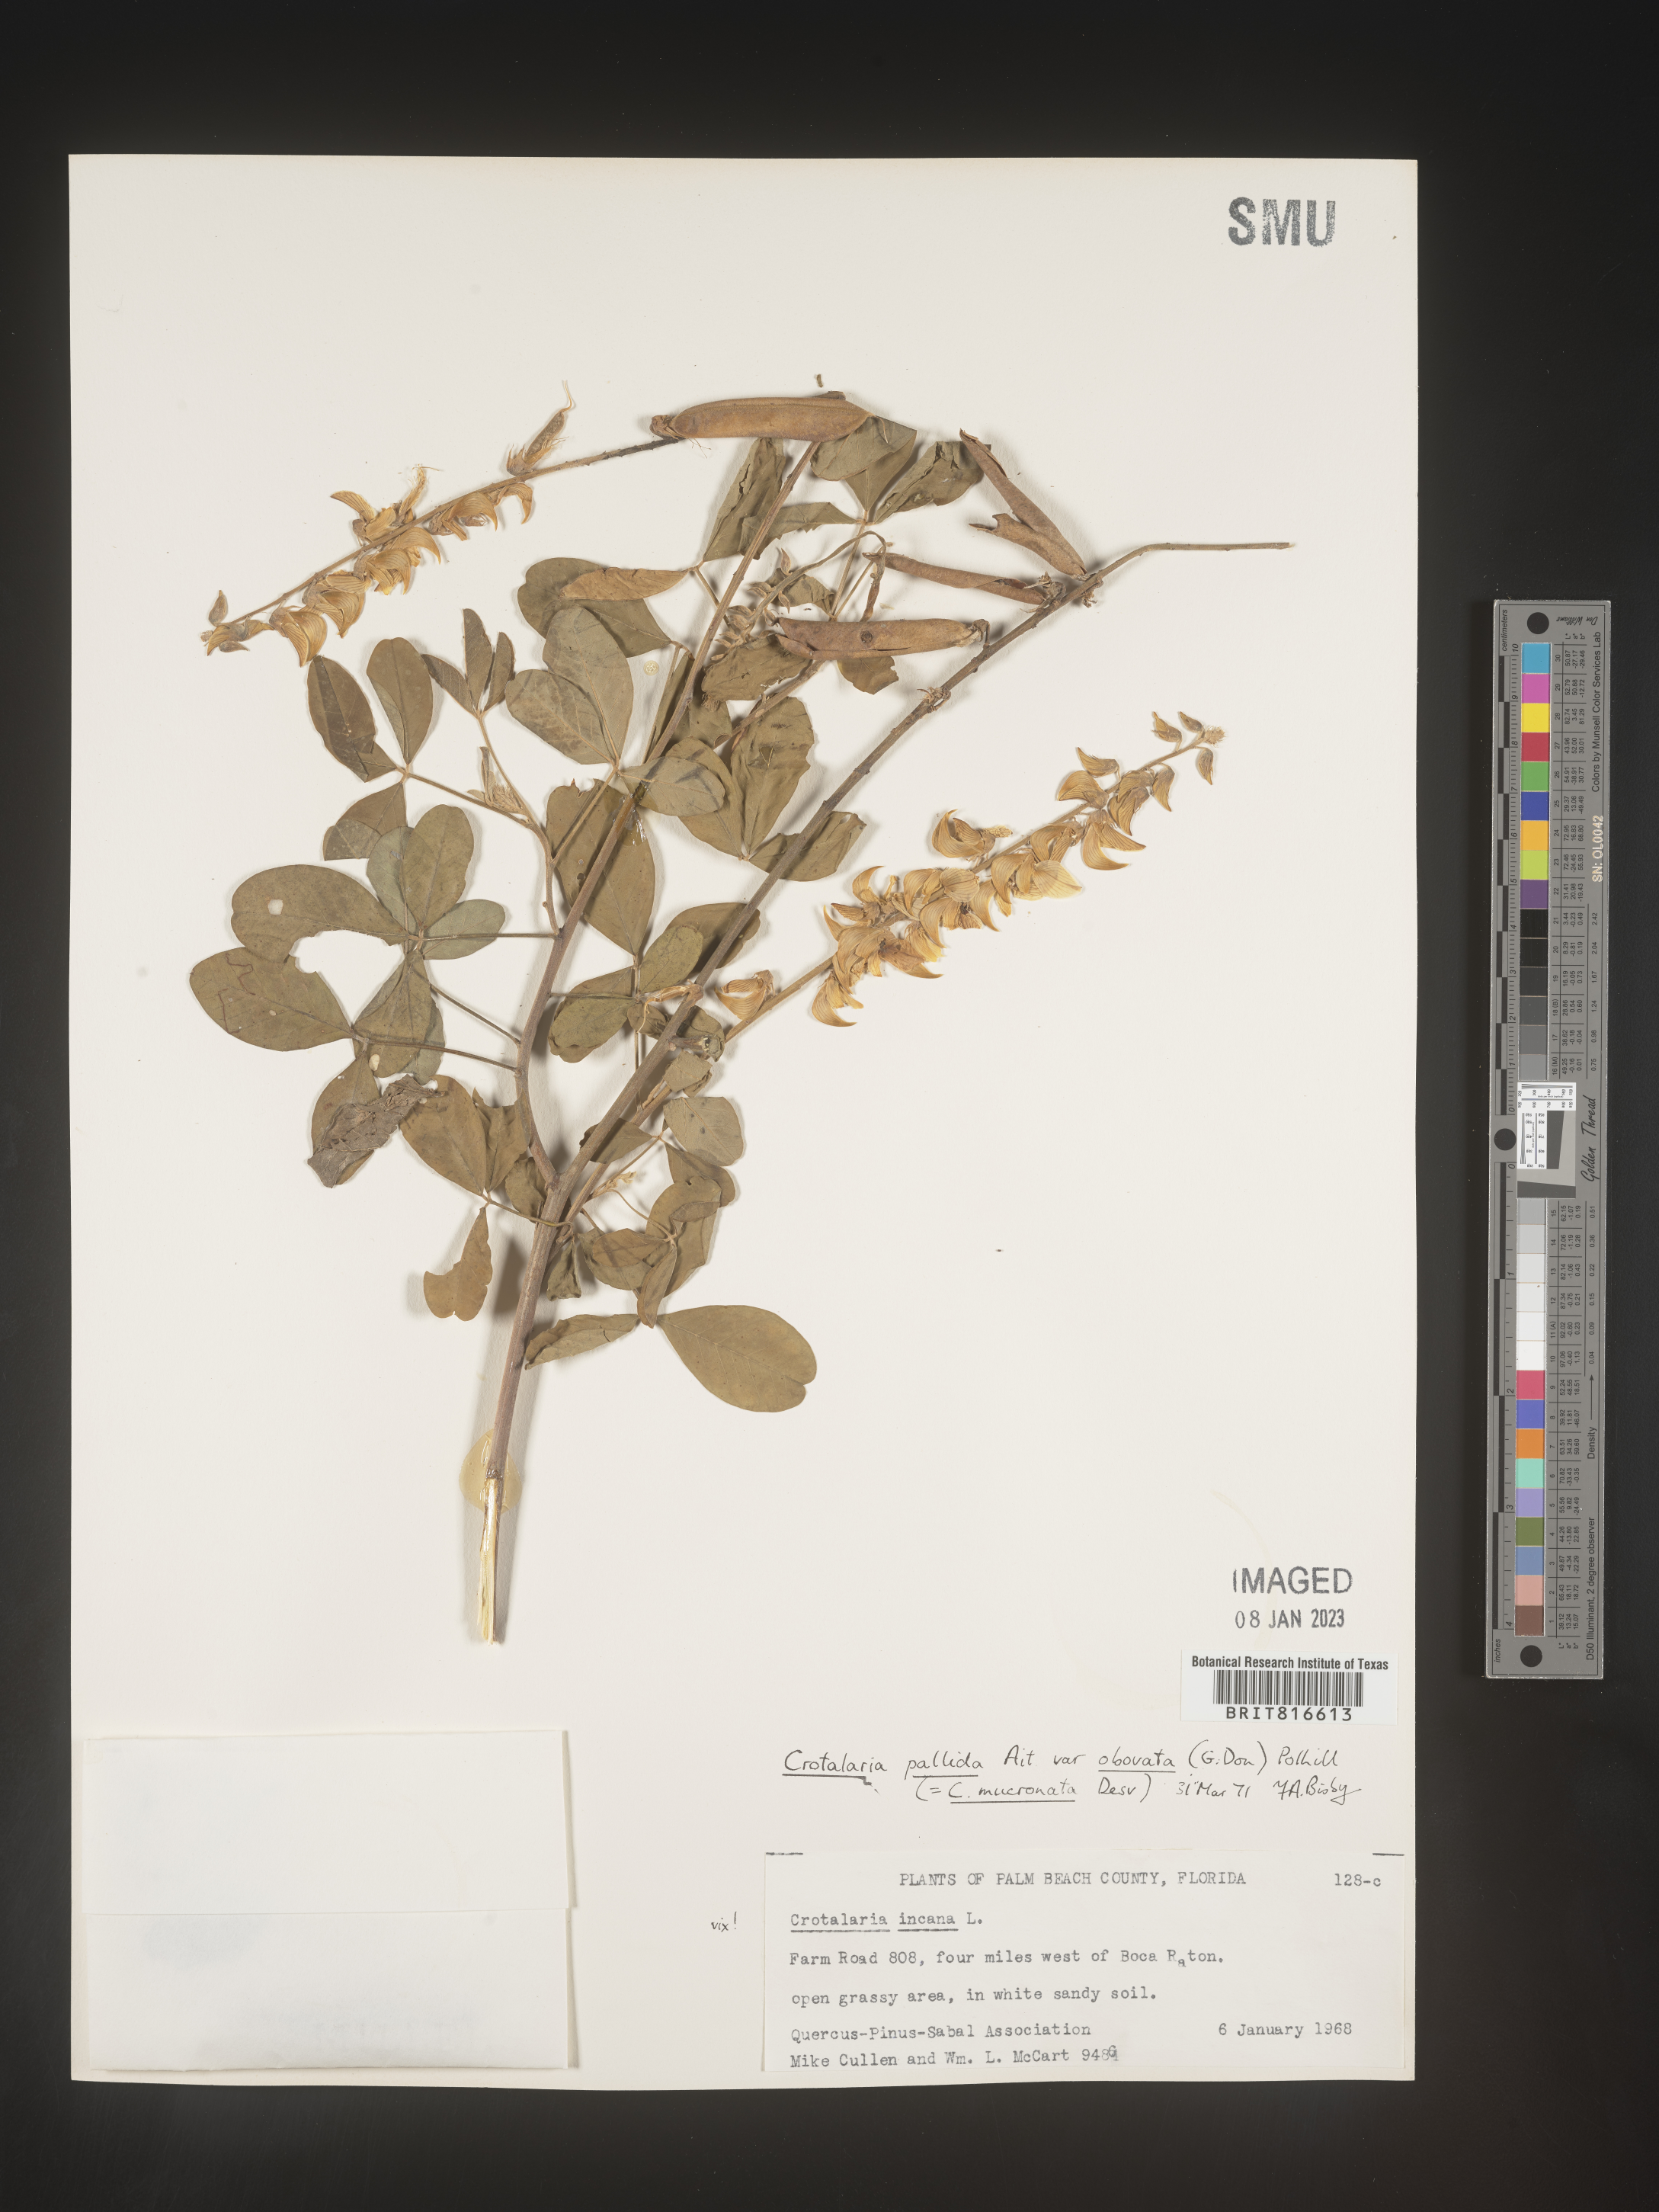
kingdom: Plantae
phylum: Tracheophyta
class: Magnoliopsida
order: Fabales
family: Fabaceae
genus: Crotalaria
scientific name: Crotalaria linifolia
